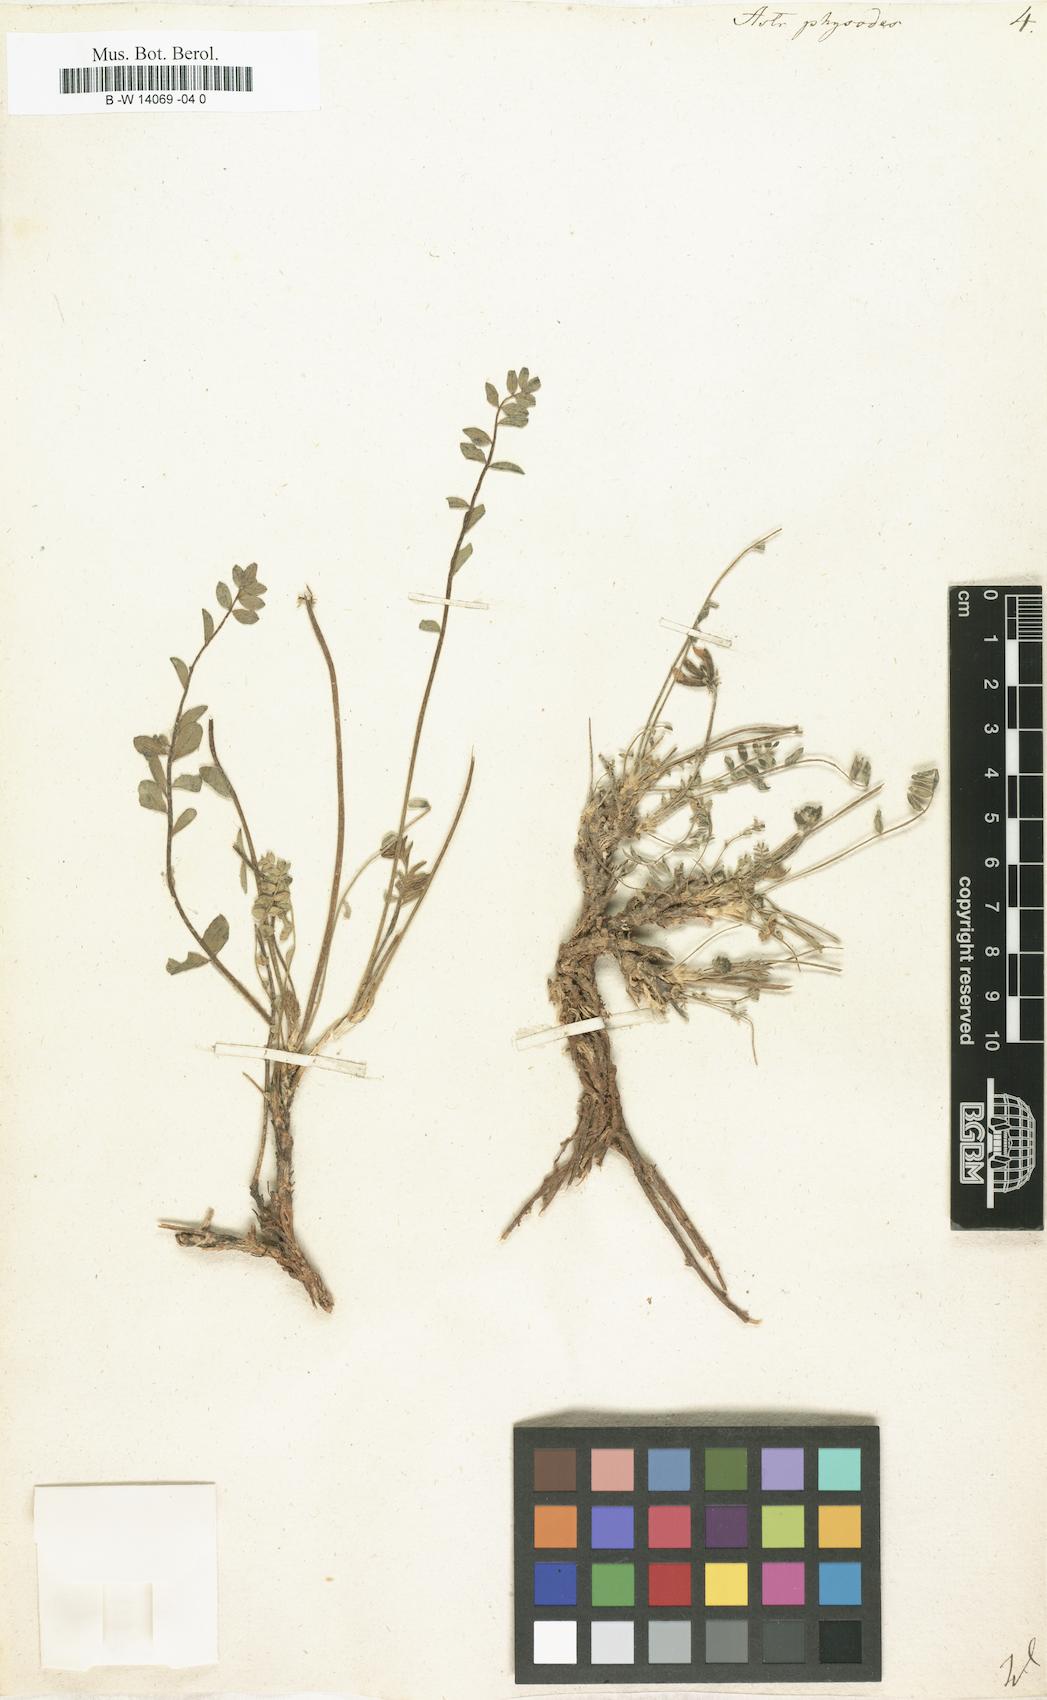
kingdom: Plantae
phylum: Tracheophyta
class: Magnoliopsida
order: Fabales
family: Fabaceae
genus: Astragalus
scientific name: Astragalus physodes
